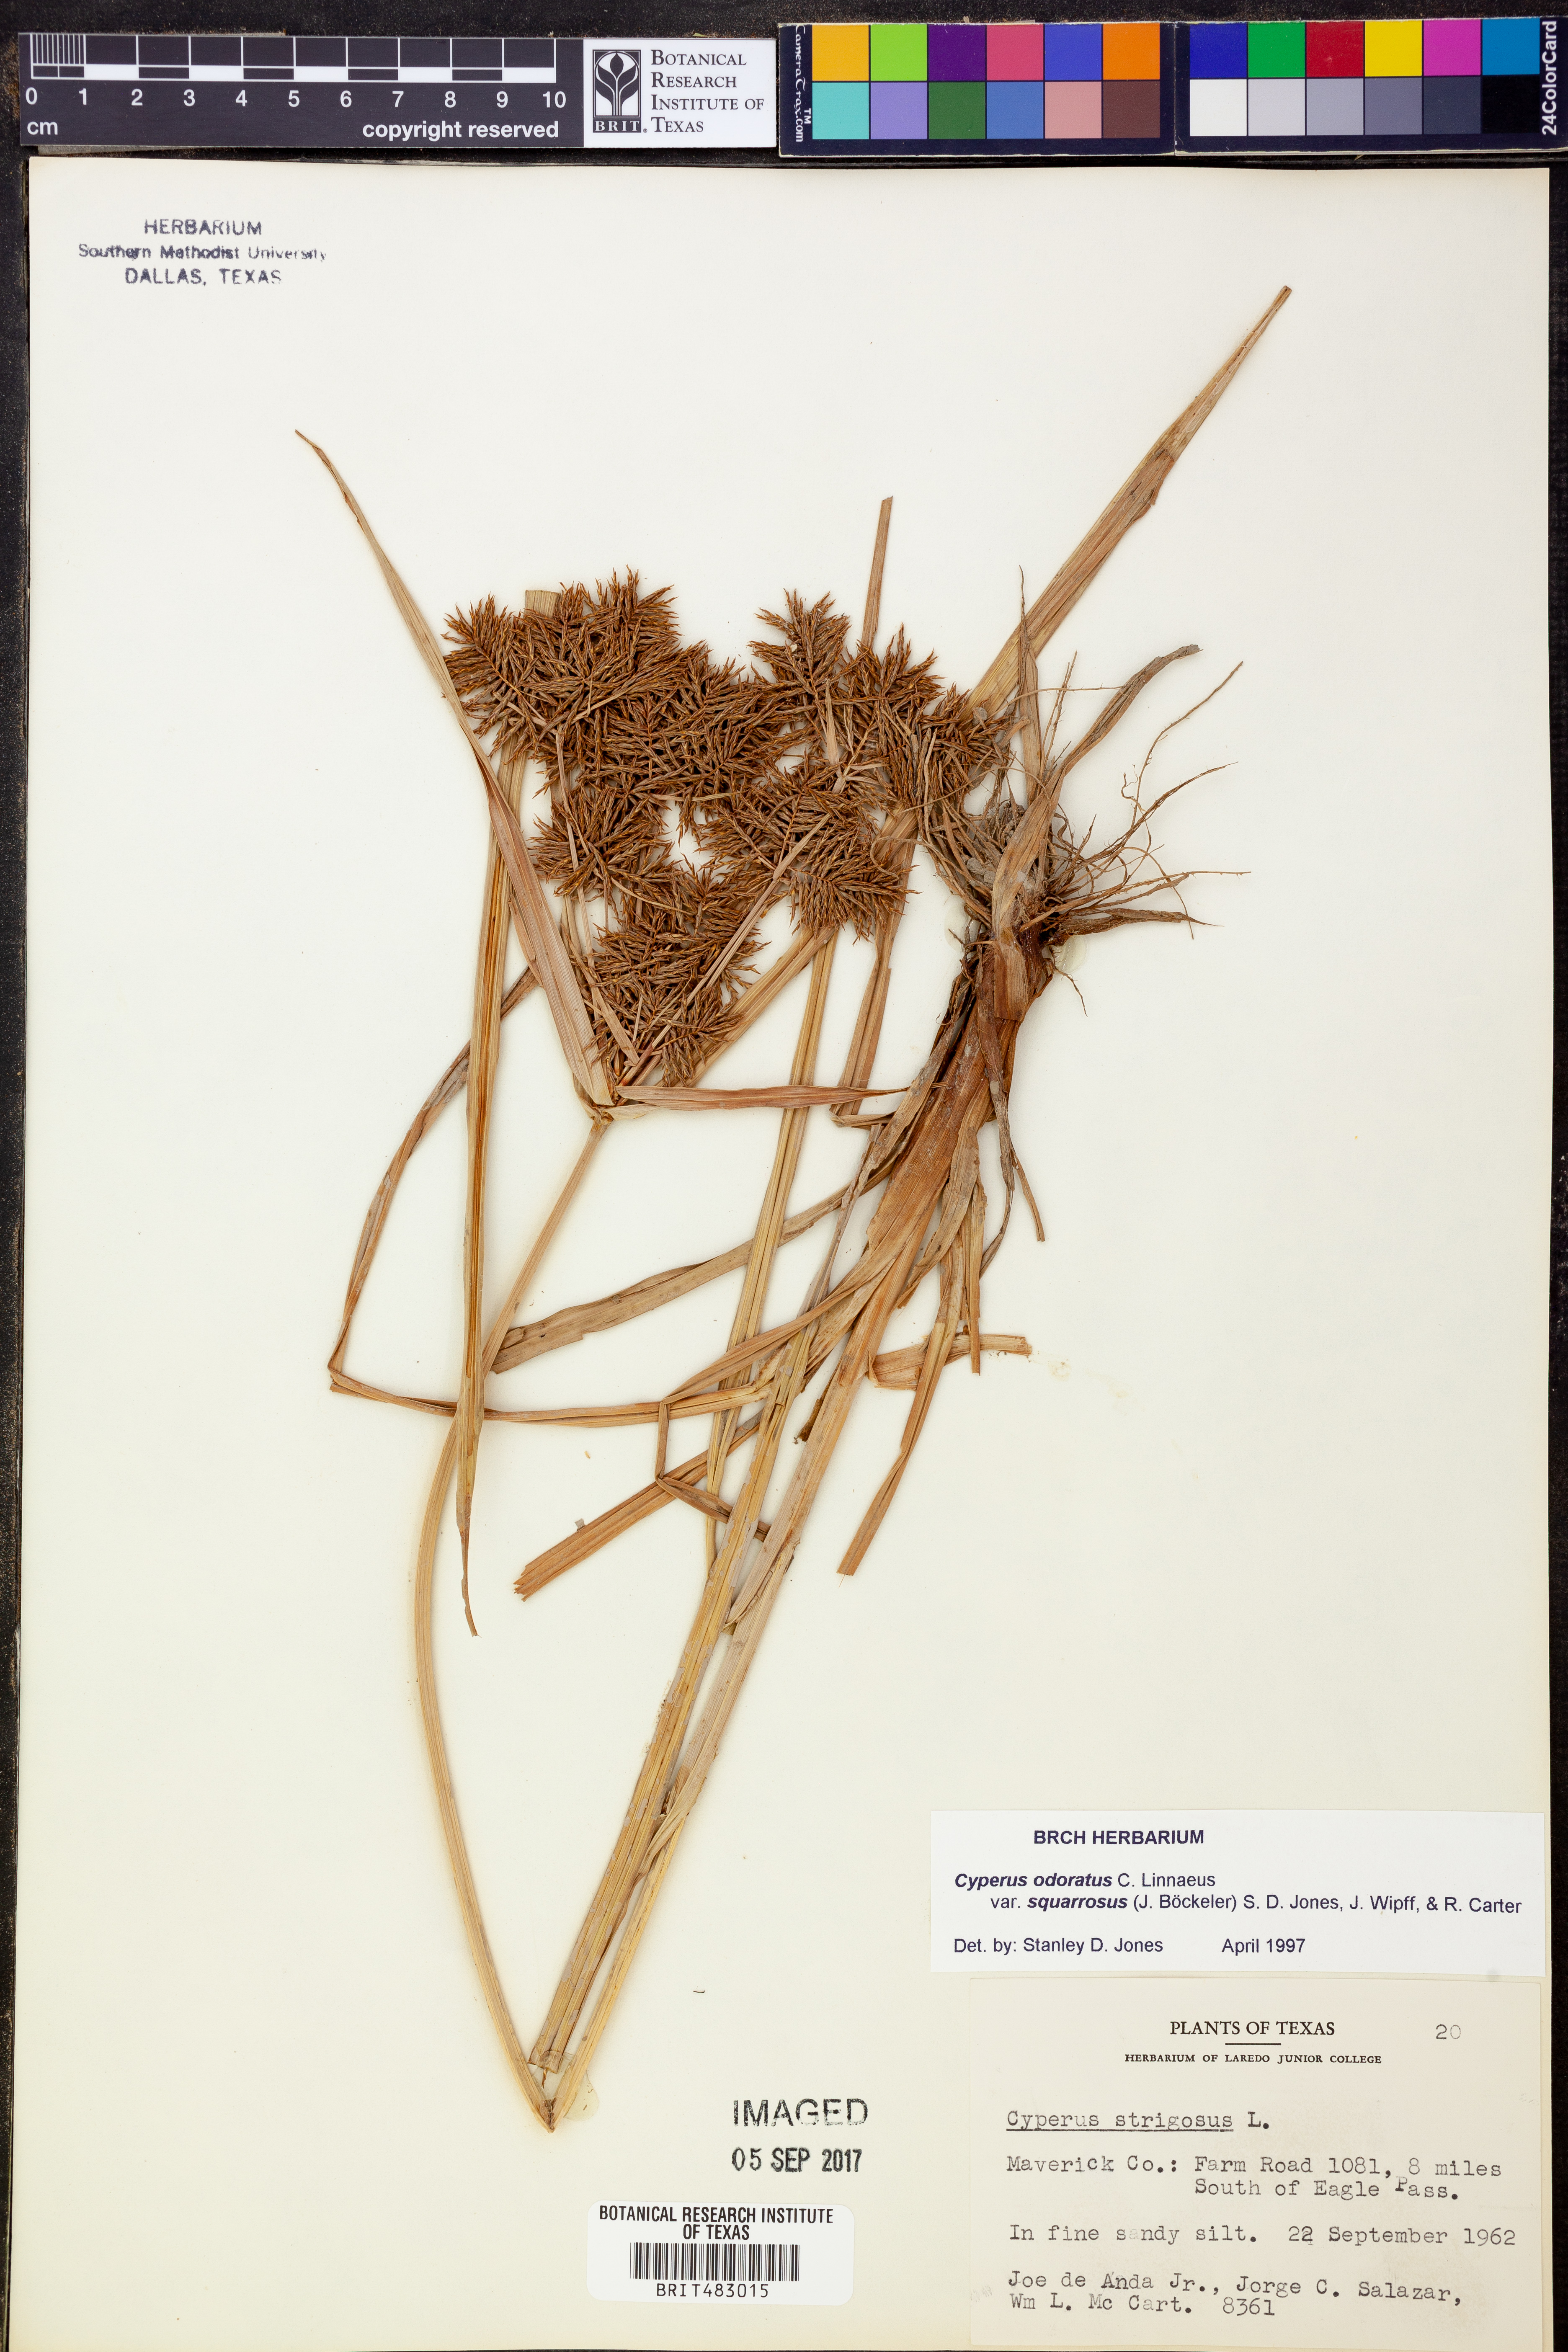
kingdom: Plantae
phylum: Tracheophyta
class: Liliopsida
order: Poales
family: Cyperaceae
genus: Cyperus
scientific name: Cyperus odoratus
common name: Fragrant flatsedge
